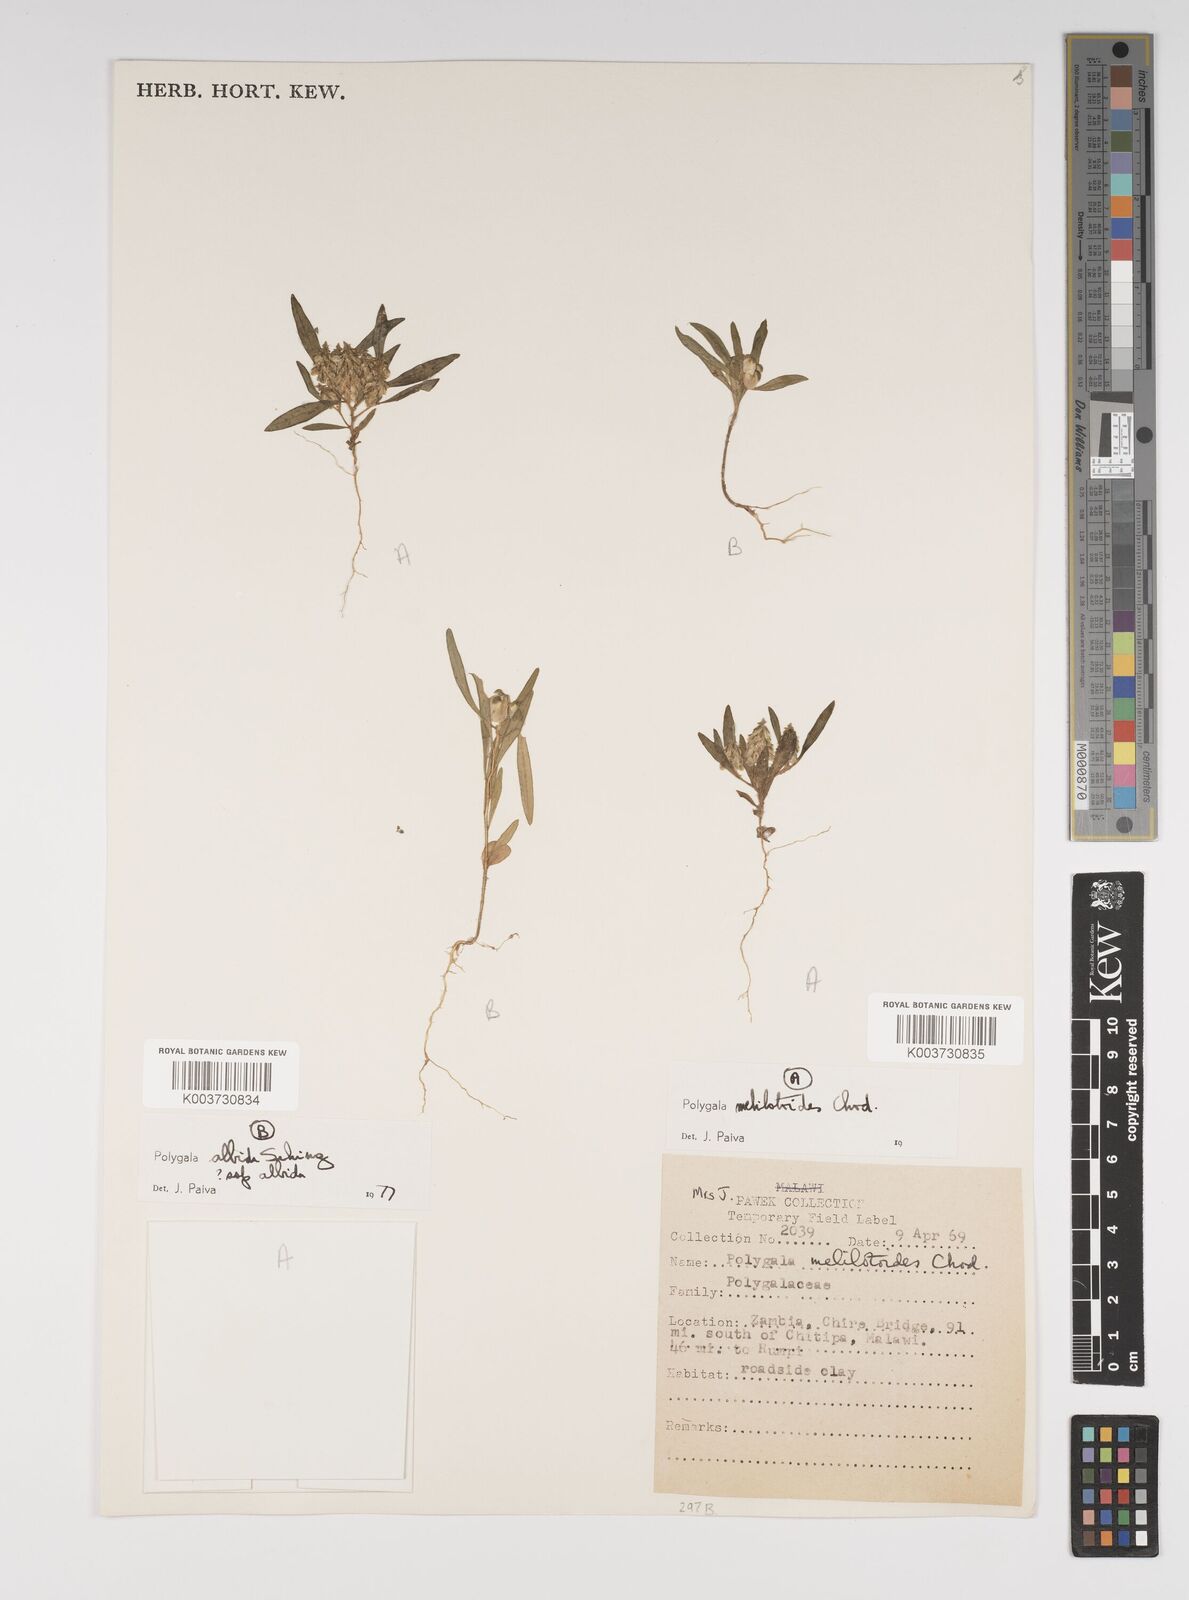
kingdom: Plantae
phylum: Tracheophyta
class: Magnoliopsida
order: Fabales
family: Polygalaceae
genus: Polygala
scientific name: Polygala melilotoides
